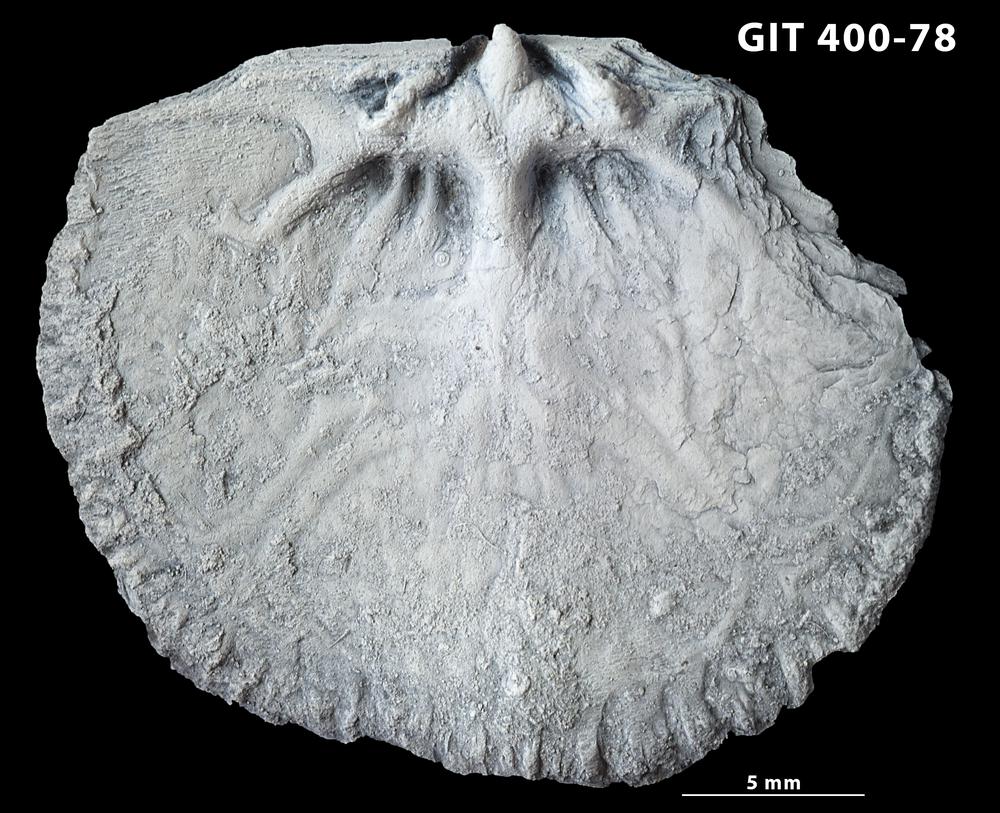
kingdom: Animalia
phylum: Brachiopoda
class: Rhynchonellata
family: Orthidae
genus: Cyrtonotella
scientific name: Cyrtonotella
